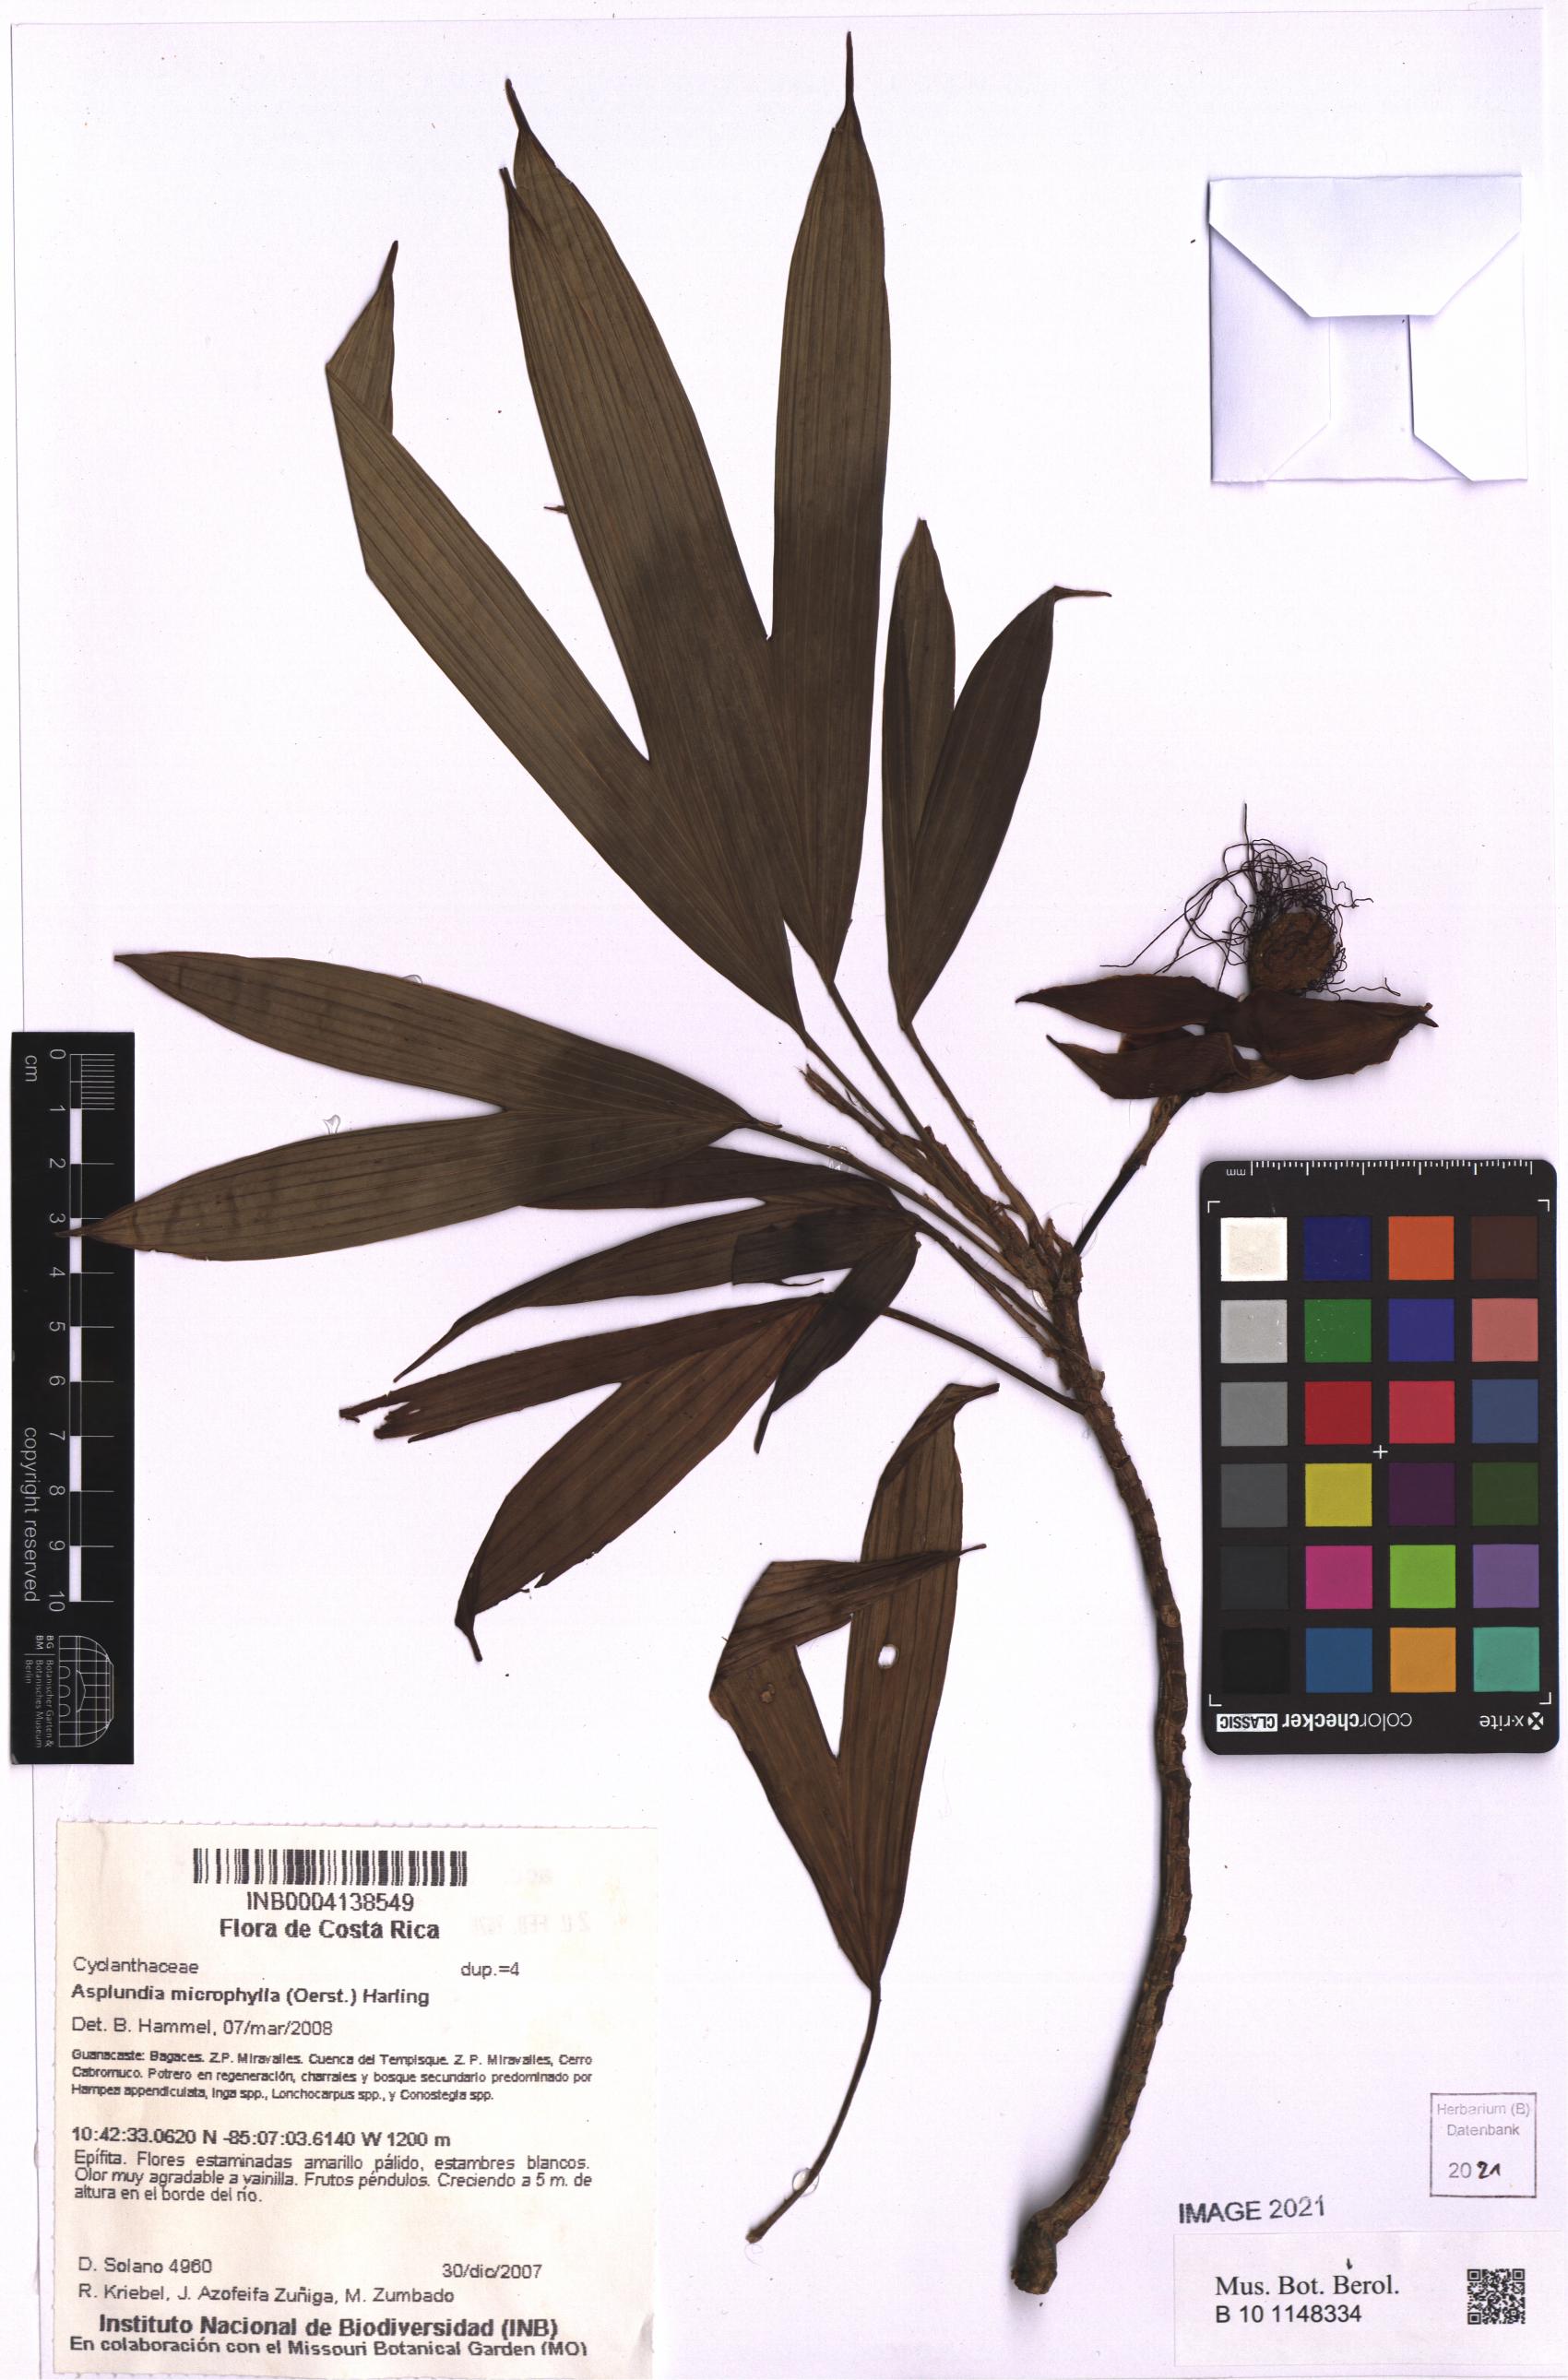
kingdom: Plantae
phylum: Tracheophyta
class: Liliopsida
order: Pandanales
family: Cyclanthaceae
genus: Asplundia
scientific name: Asplundia microphylla
